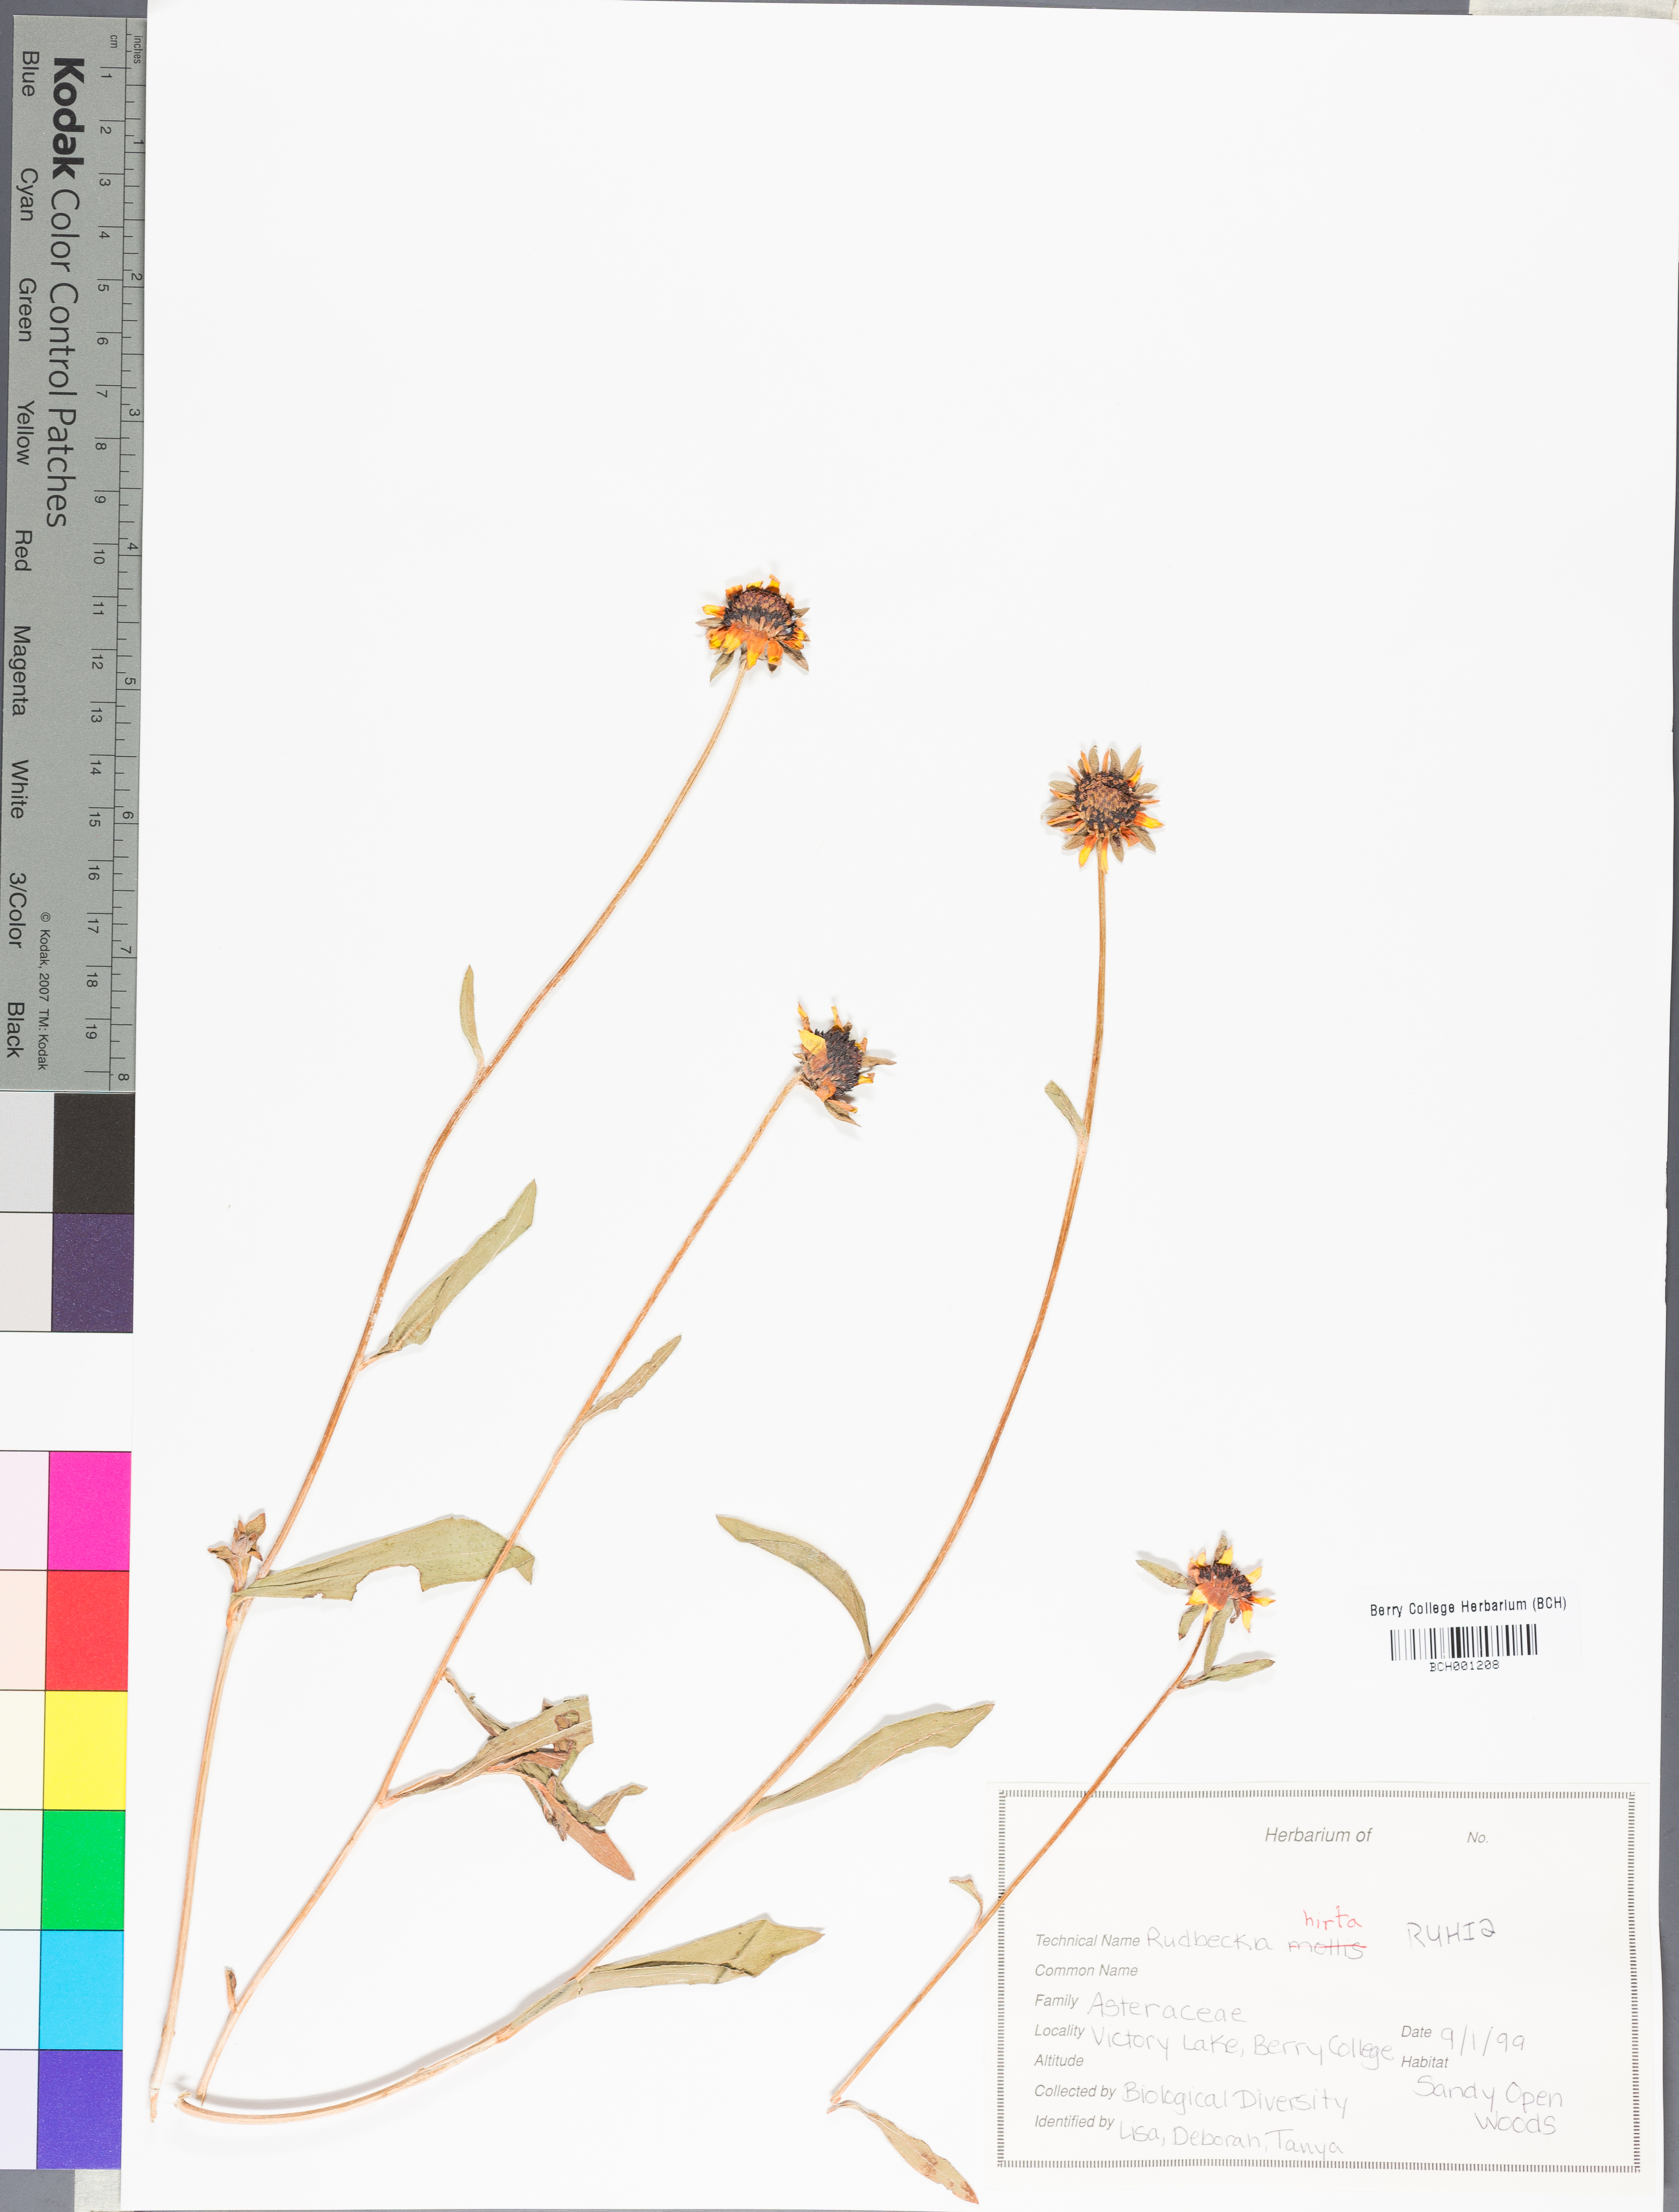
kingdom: Plantae
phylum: Tracheophyta
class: Magnoliopsida
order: Asterales
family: Asteraceae
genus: Rudbeckia
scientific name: Rudbeckia hirta
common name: Black-eyed-susan
